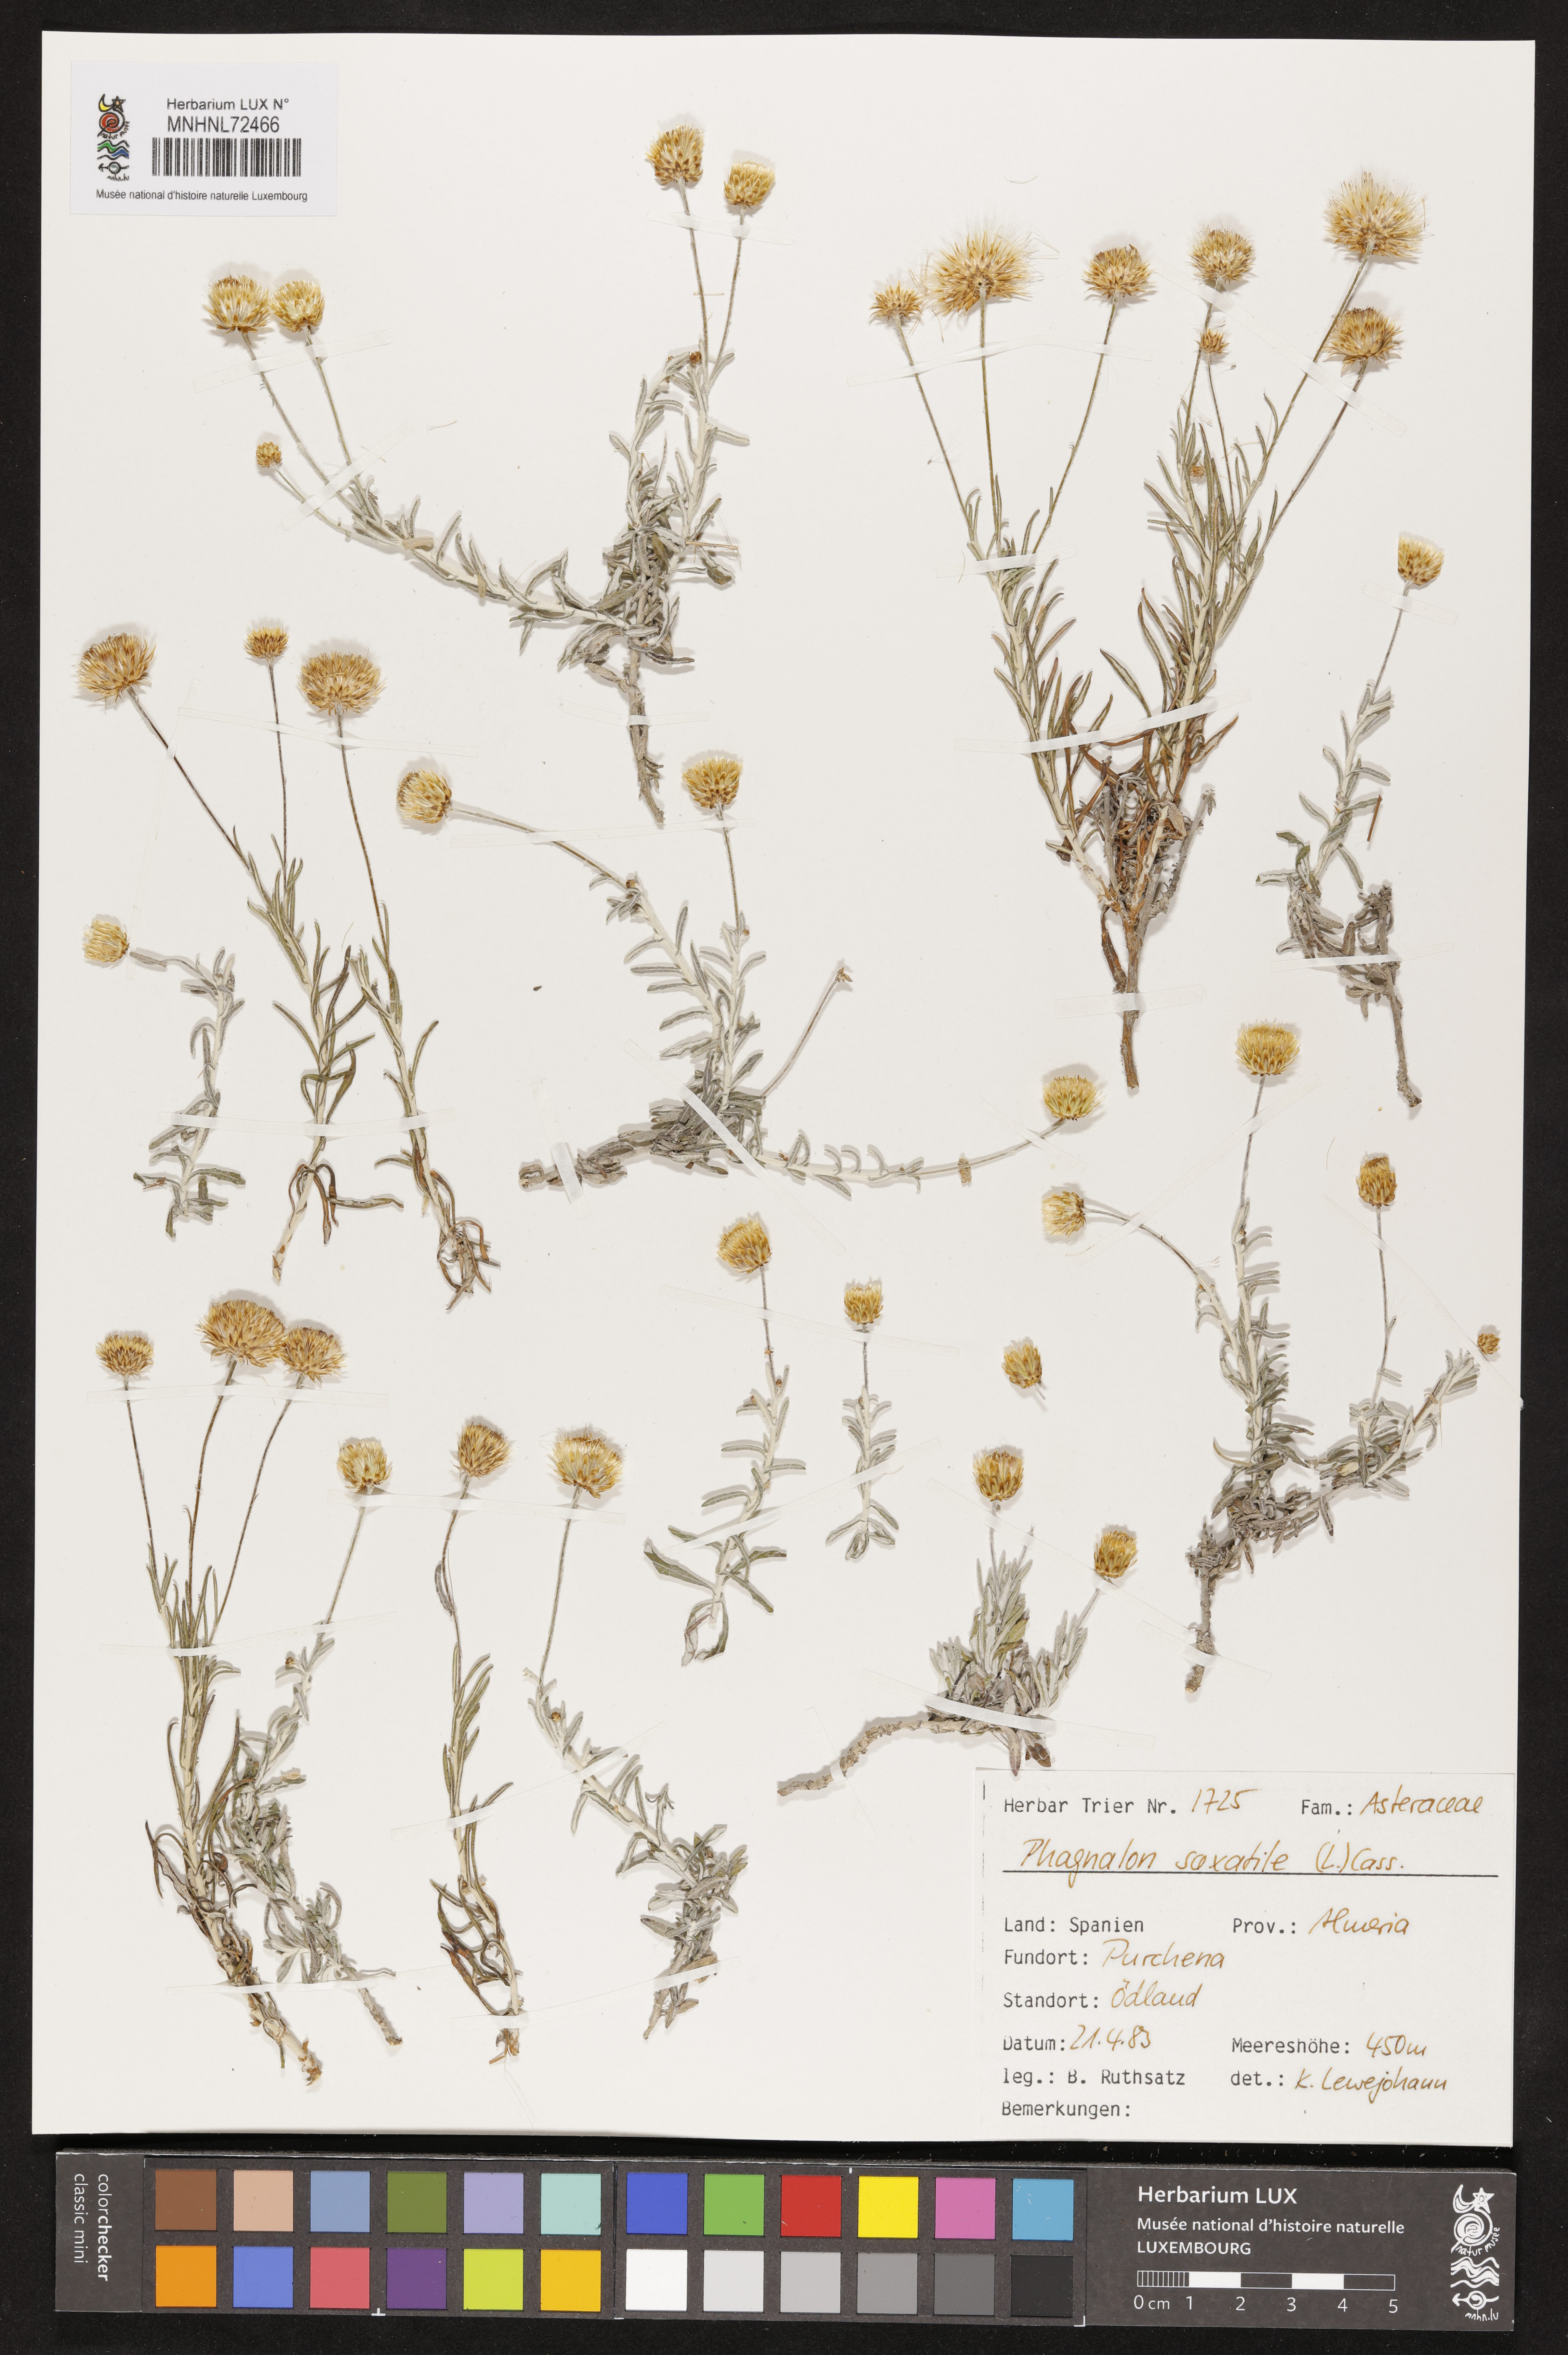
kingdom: Plantae
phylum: Tracheophyta
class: Magnoliopsida
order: Asterales
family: Asteraceae
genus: Phagnalon
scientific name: Phagnalon saxatile
